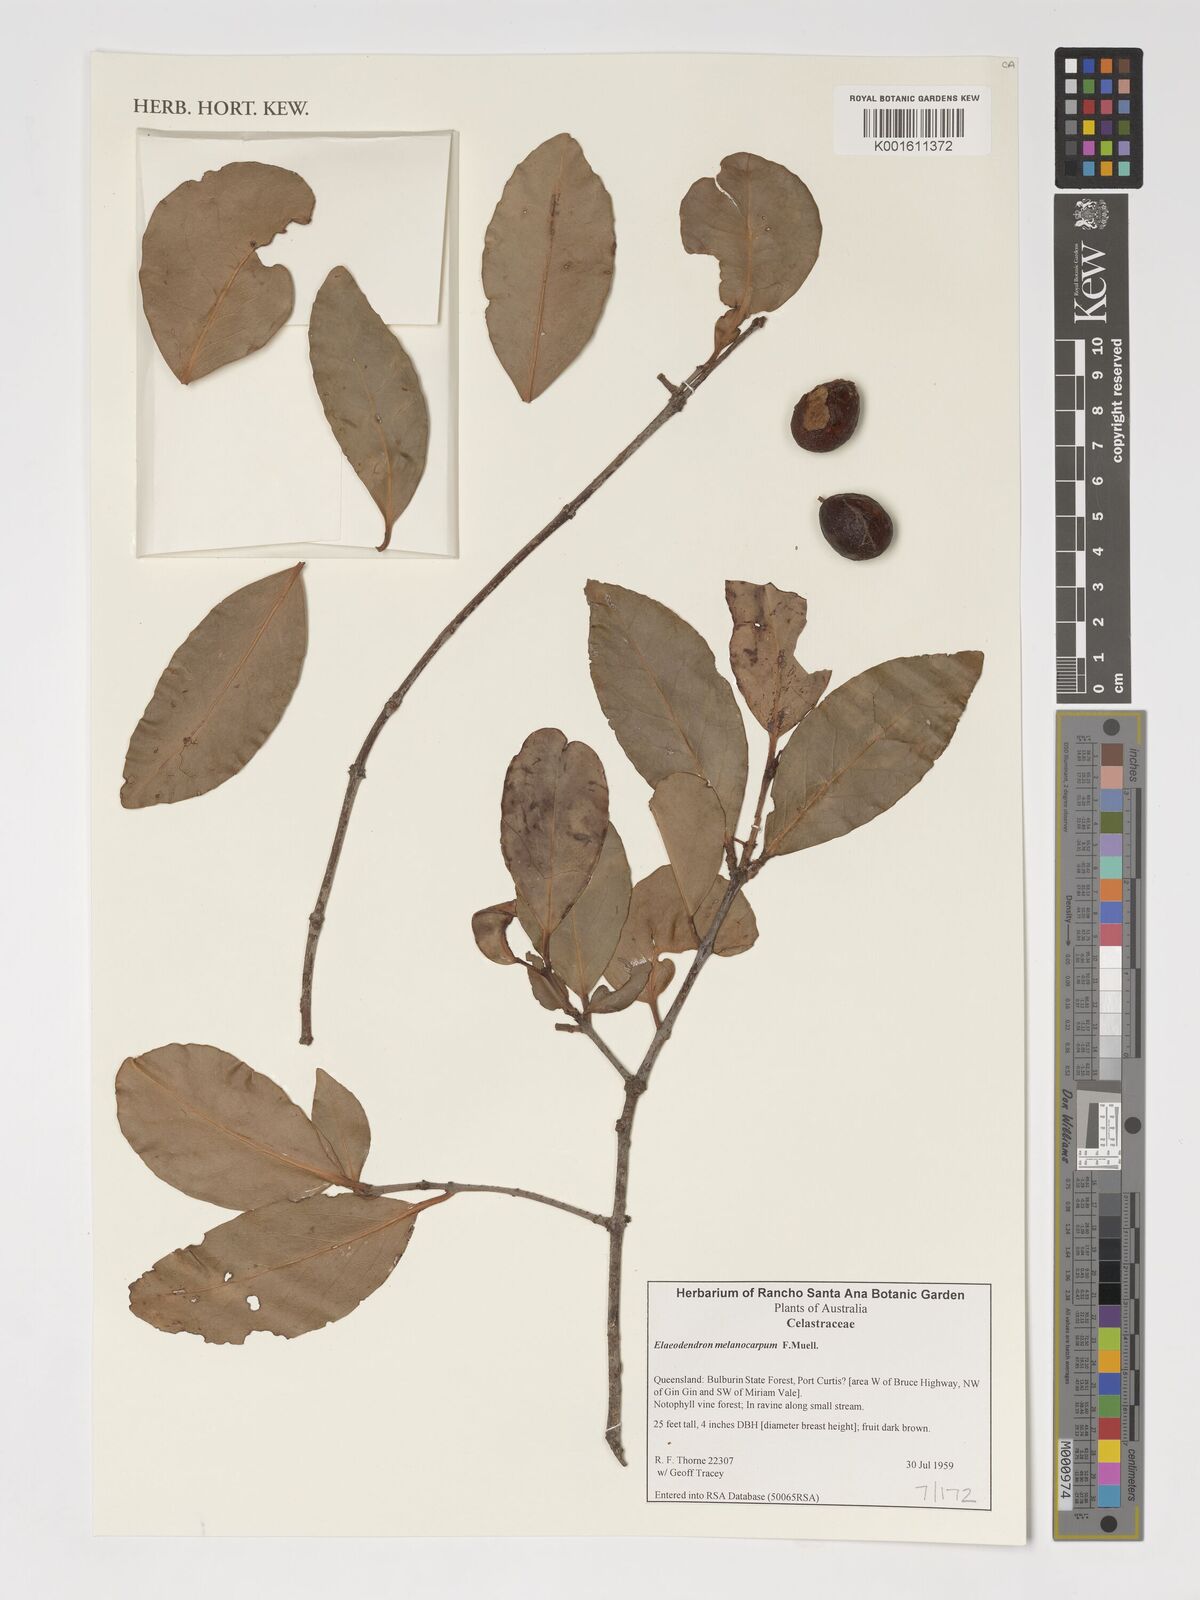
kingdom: Plantae
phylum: Tracheophyta
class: Magnoliopsida
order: Celastrales
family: Celastraceae
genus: Elaeodendron
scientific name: Elaeodendron melanocarpum
